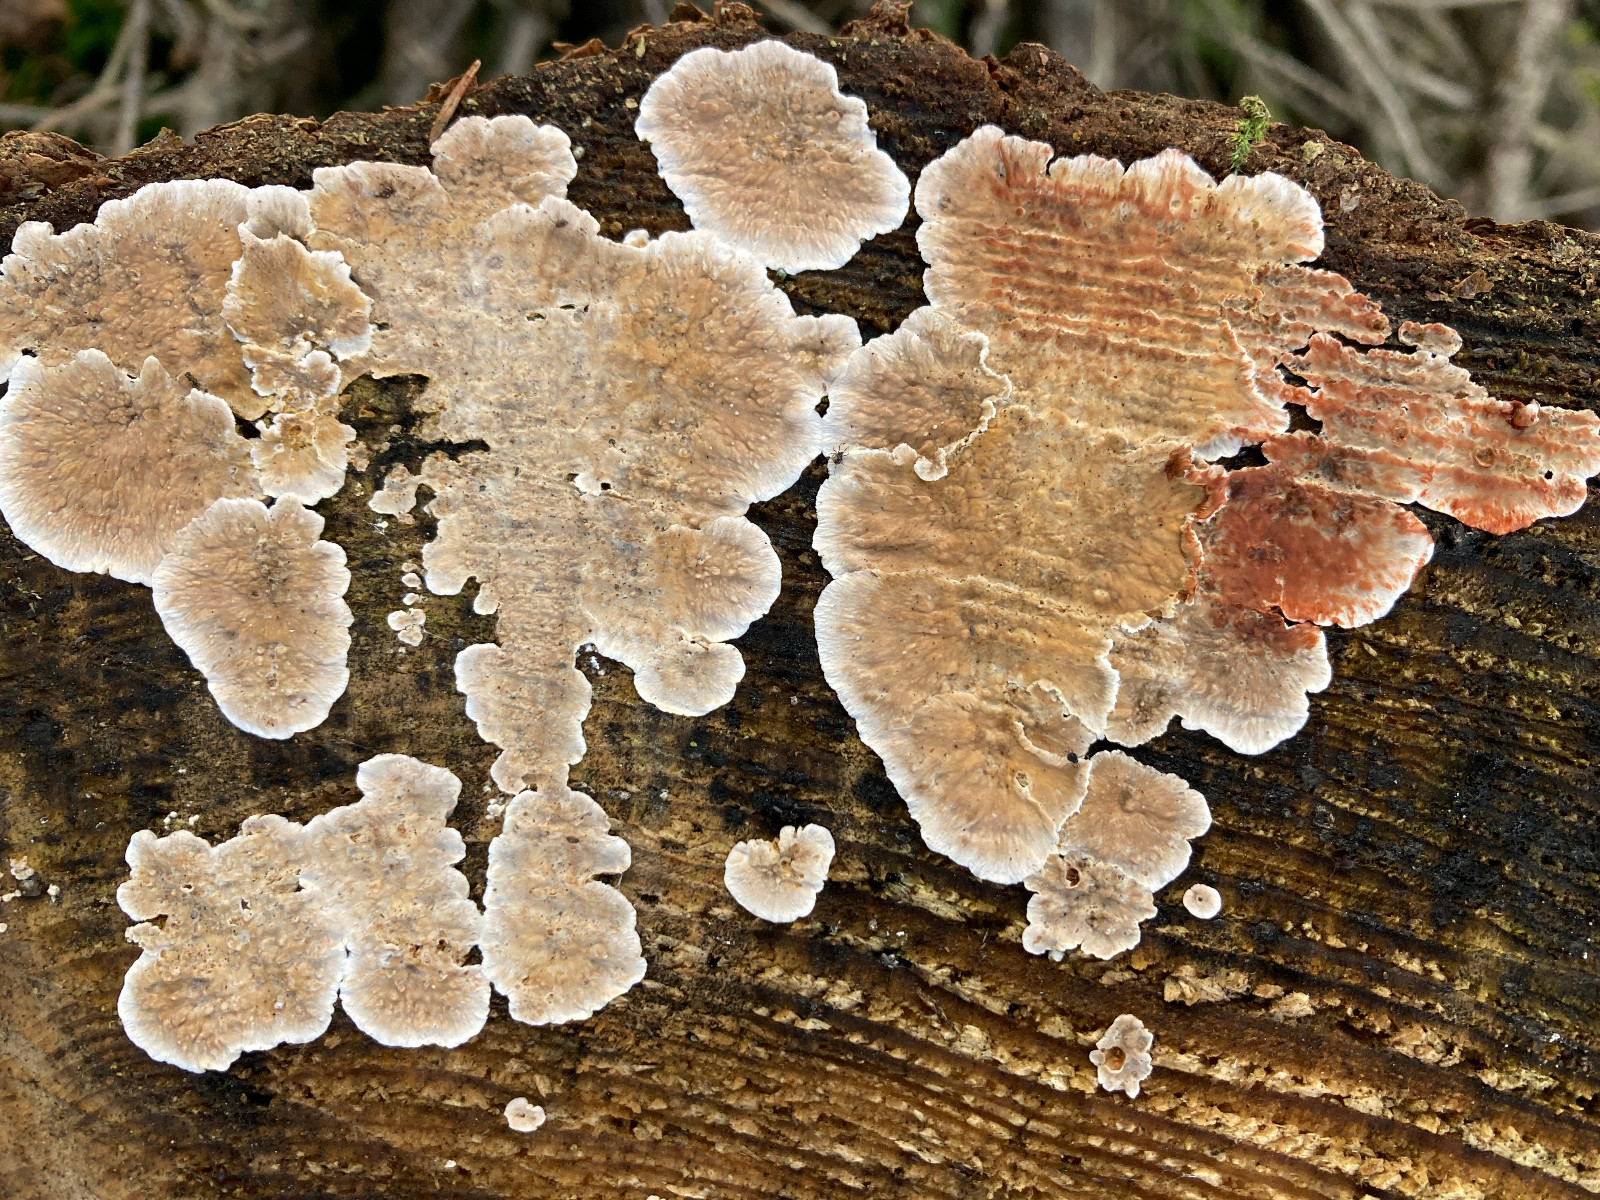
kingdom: Fungi
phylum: Basidiomycota
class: Agaricomycetes
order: Russulales
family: Stereaceae
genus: Stereum
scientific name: Stereum sanguinolentum
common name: blødende lædersvamp
